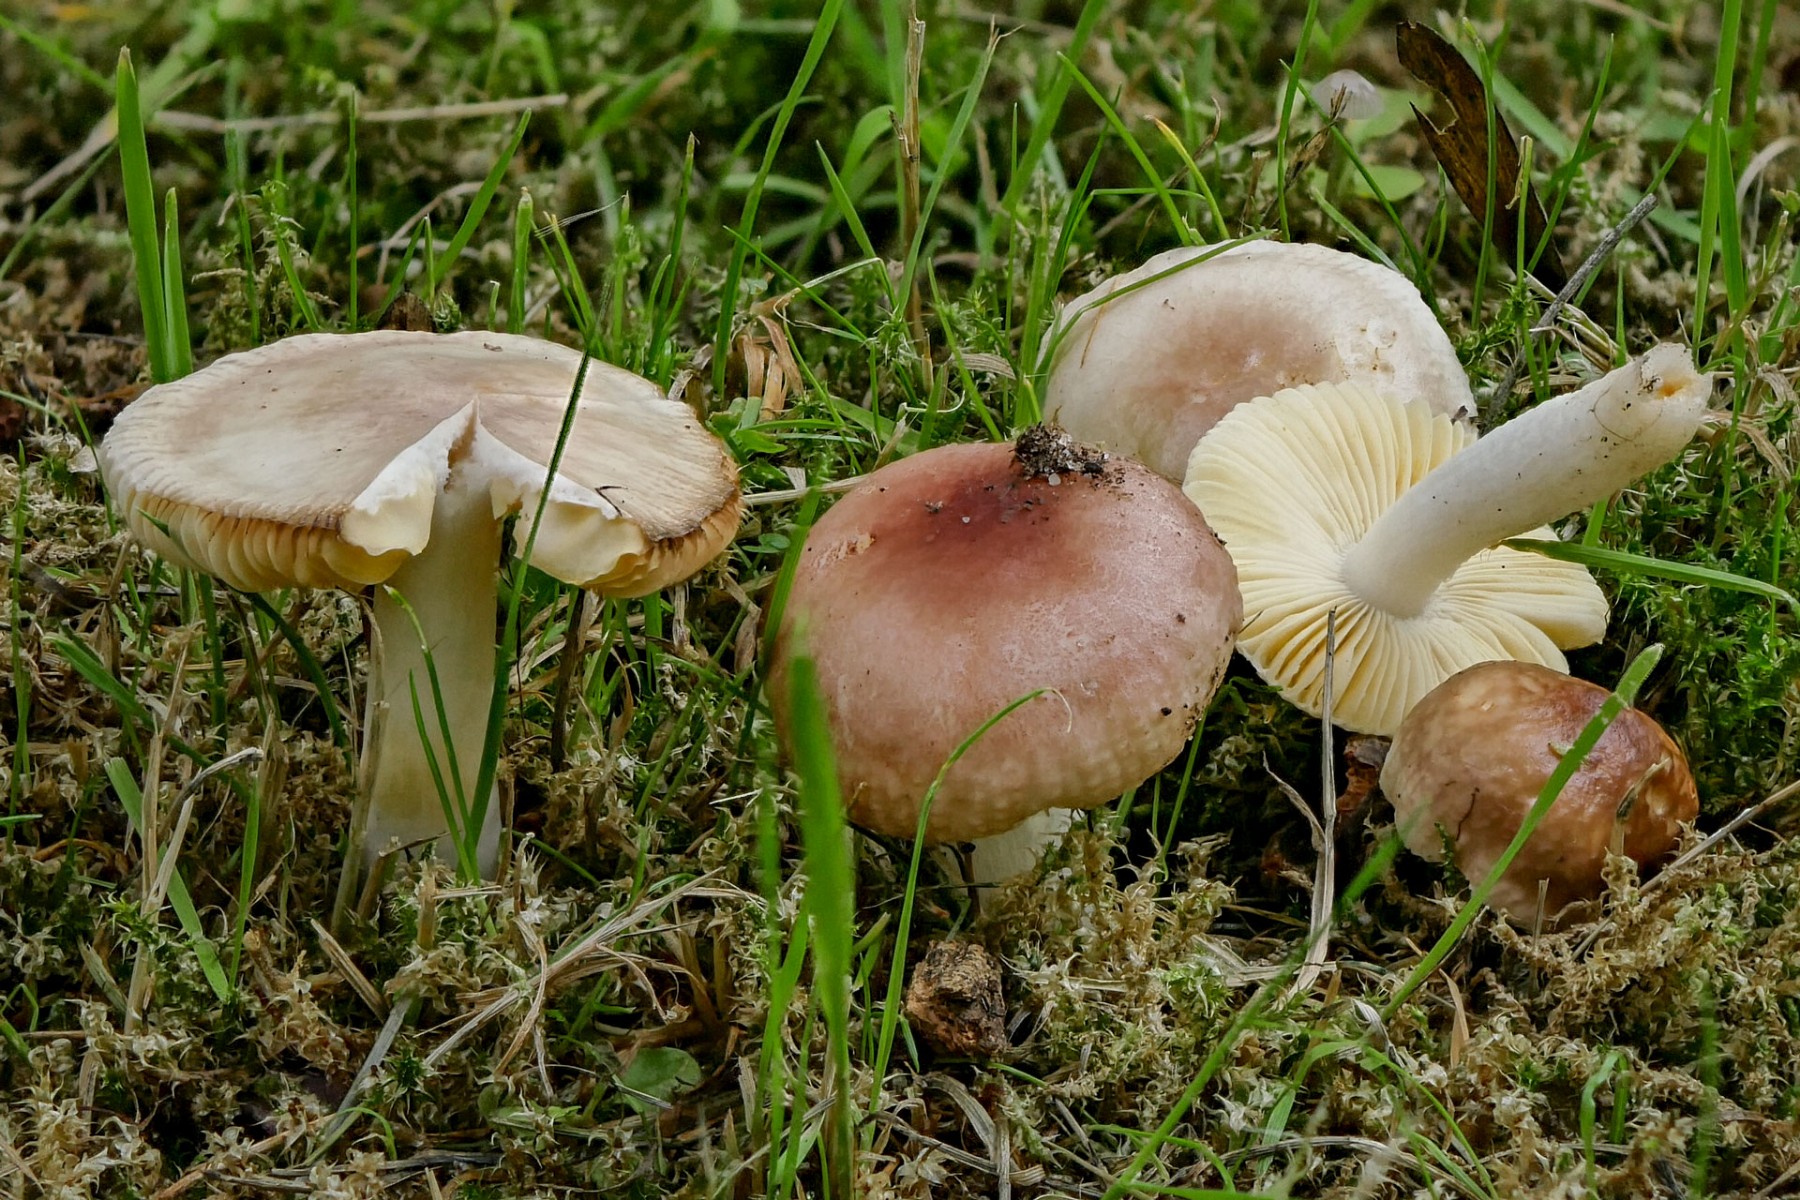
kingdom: Fungi
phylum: Basidiomycota
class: Agaricomycetes
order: Russulales
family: Russulaceae
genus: Russula
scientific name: Russula odorata
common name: duft-skørhat
